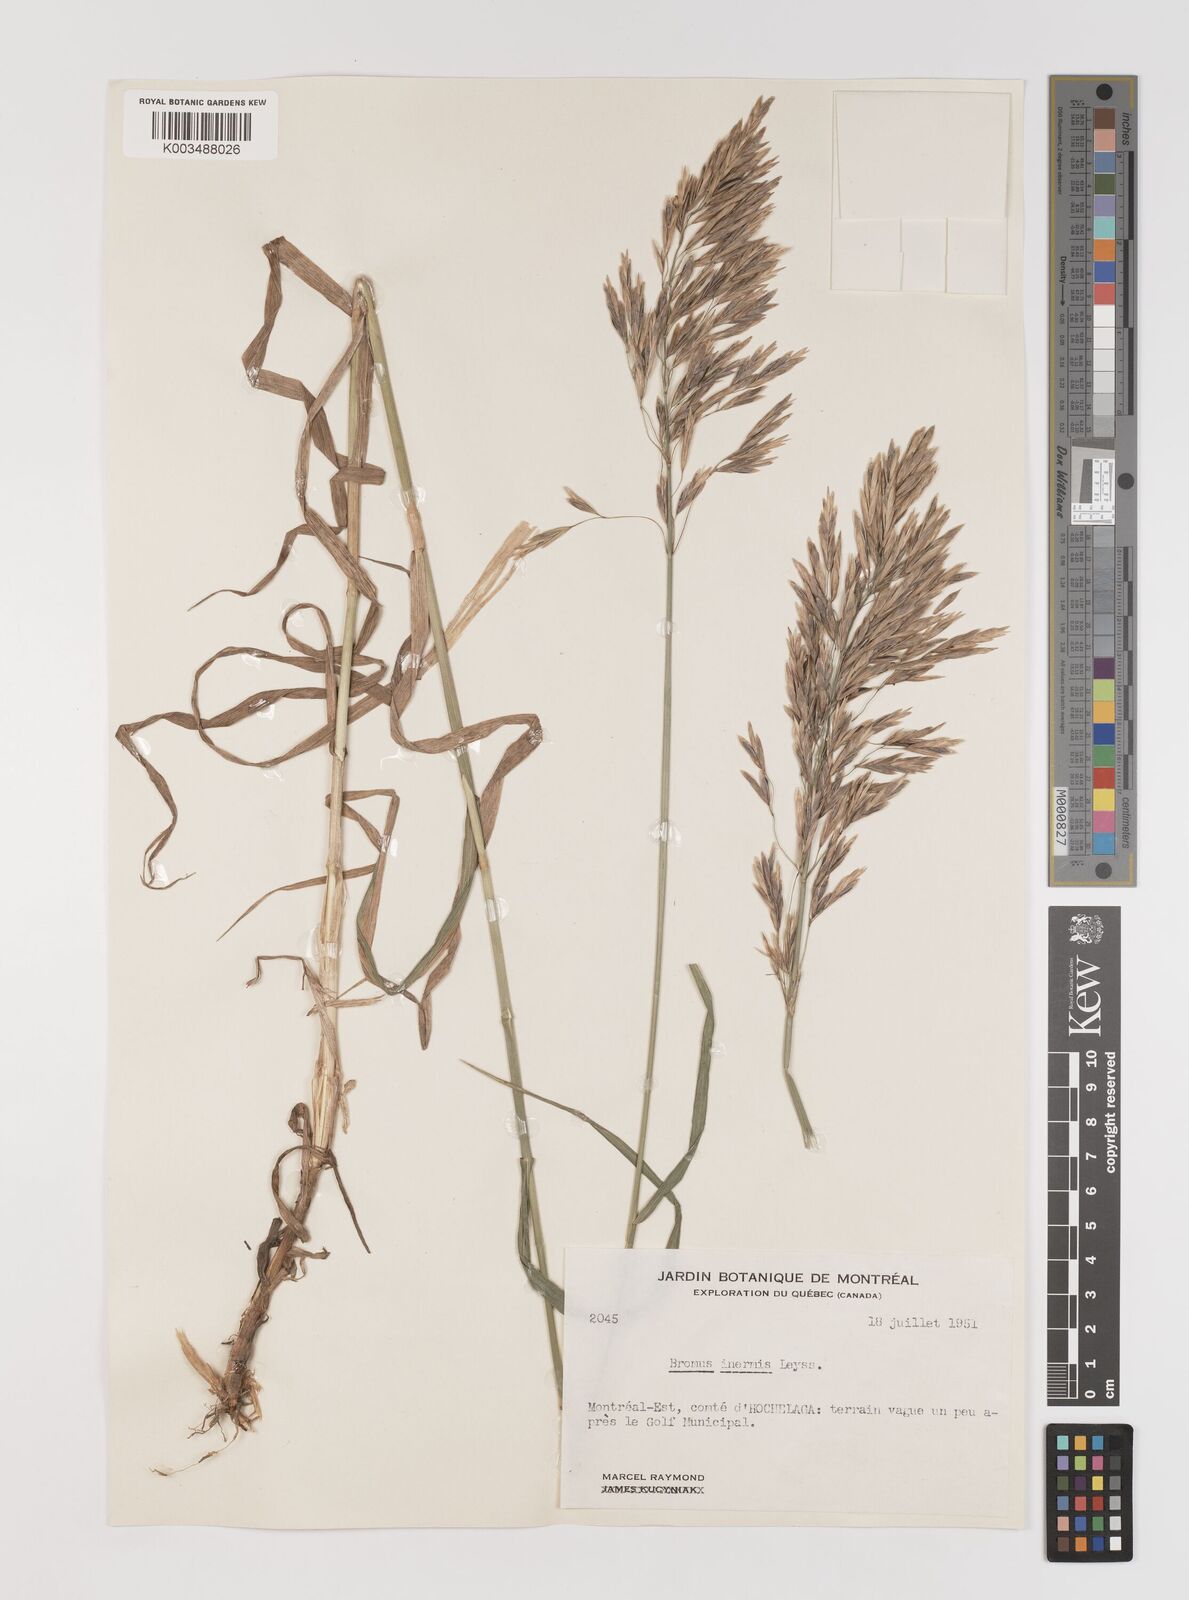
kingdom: Plantae
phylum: Tracheophyta
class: Liliopsida
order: Poales
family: Poaceae
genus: Bromus
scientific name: Bromus inermis
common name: Smooth brome
